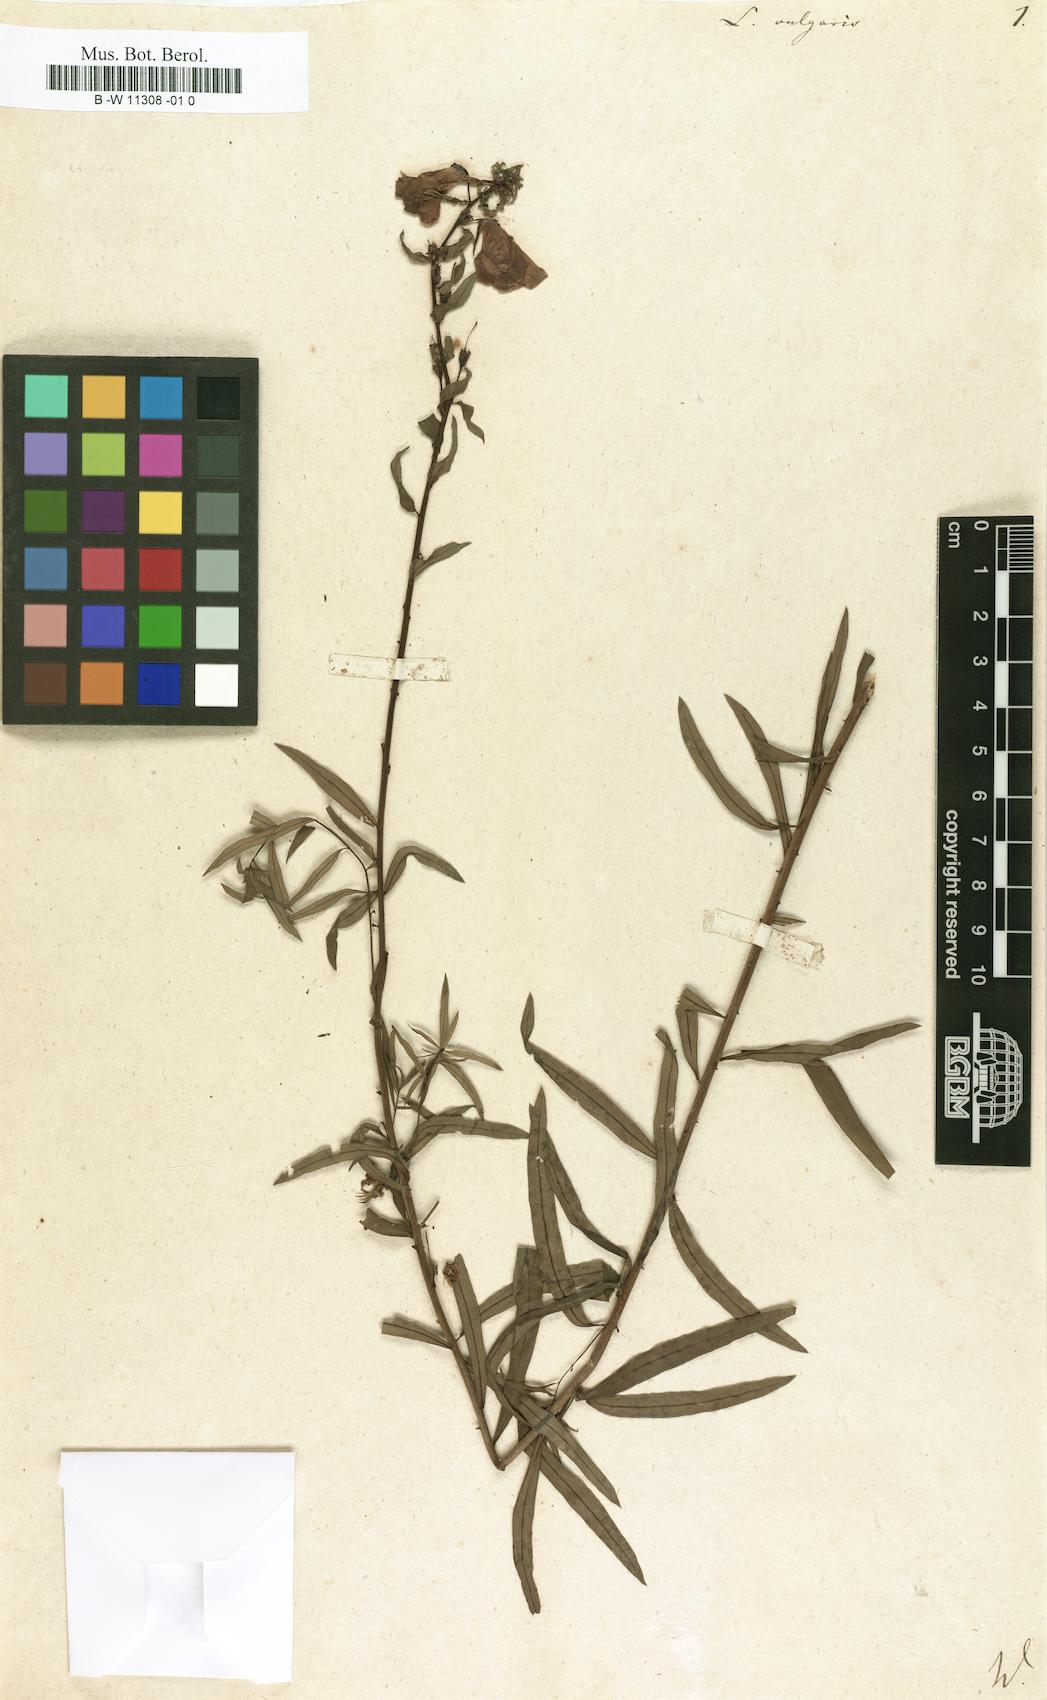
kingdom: Plantae
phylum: Tracheophyta
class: Magnoliopsida
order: Lamiales
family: Plantaginaceae
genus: Linaria
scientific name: Linaria vulgaris
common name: Butter and eggs
